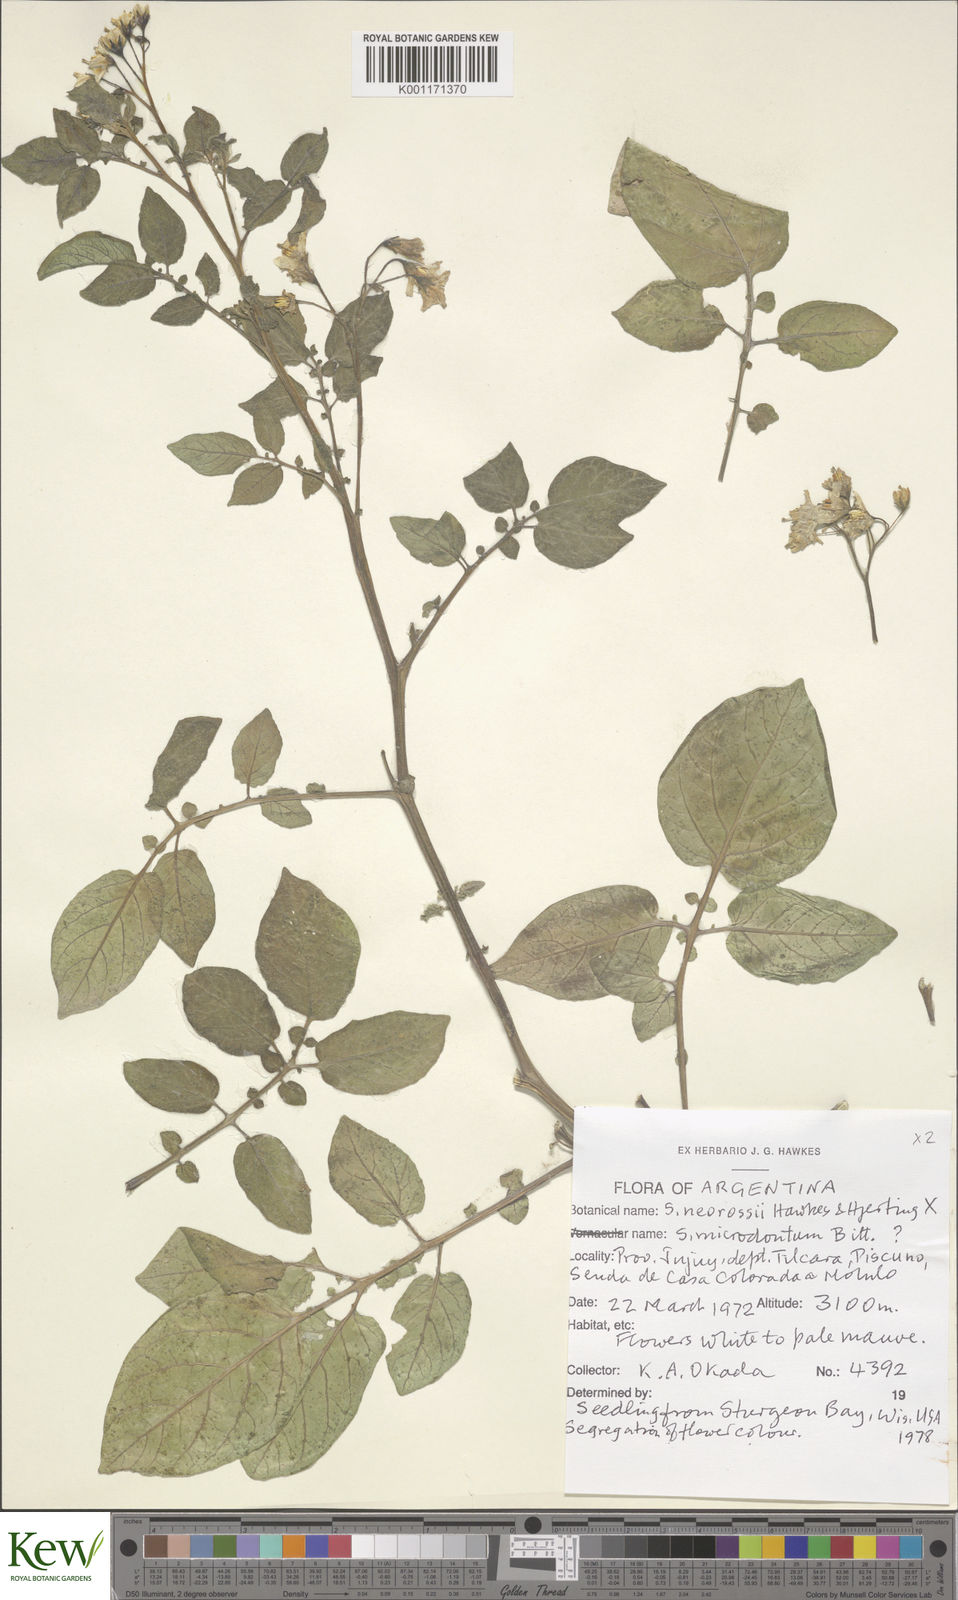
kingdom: Plantae
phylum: Tracheophyta
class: Magnoliopsida
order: Solanales
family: Solanaceae
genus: Solanum
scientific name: Solanum neorossii
